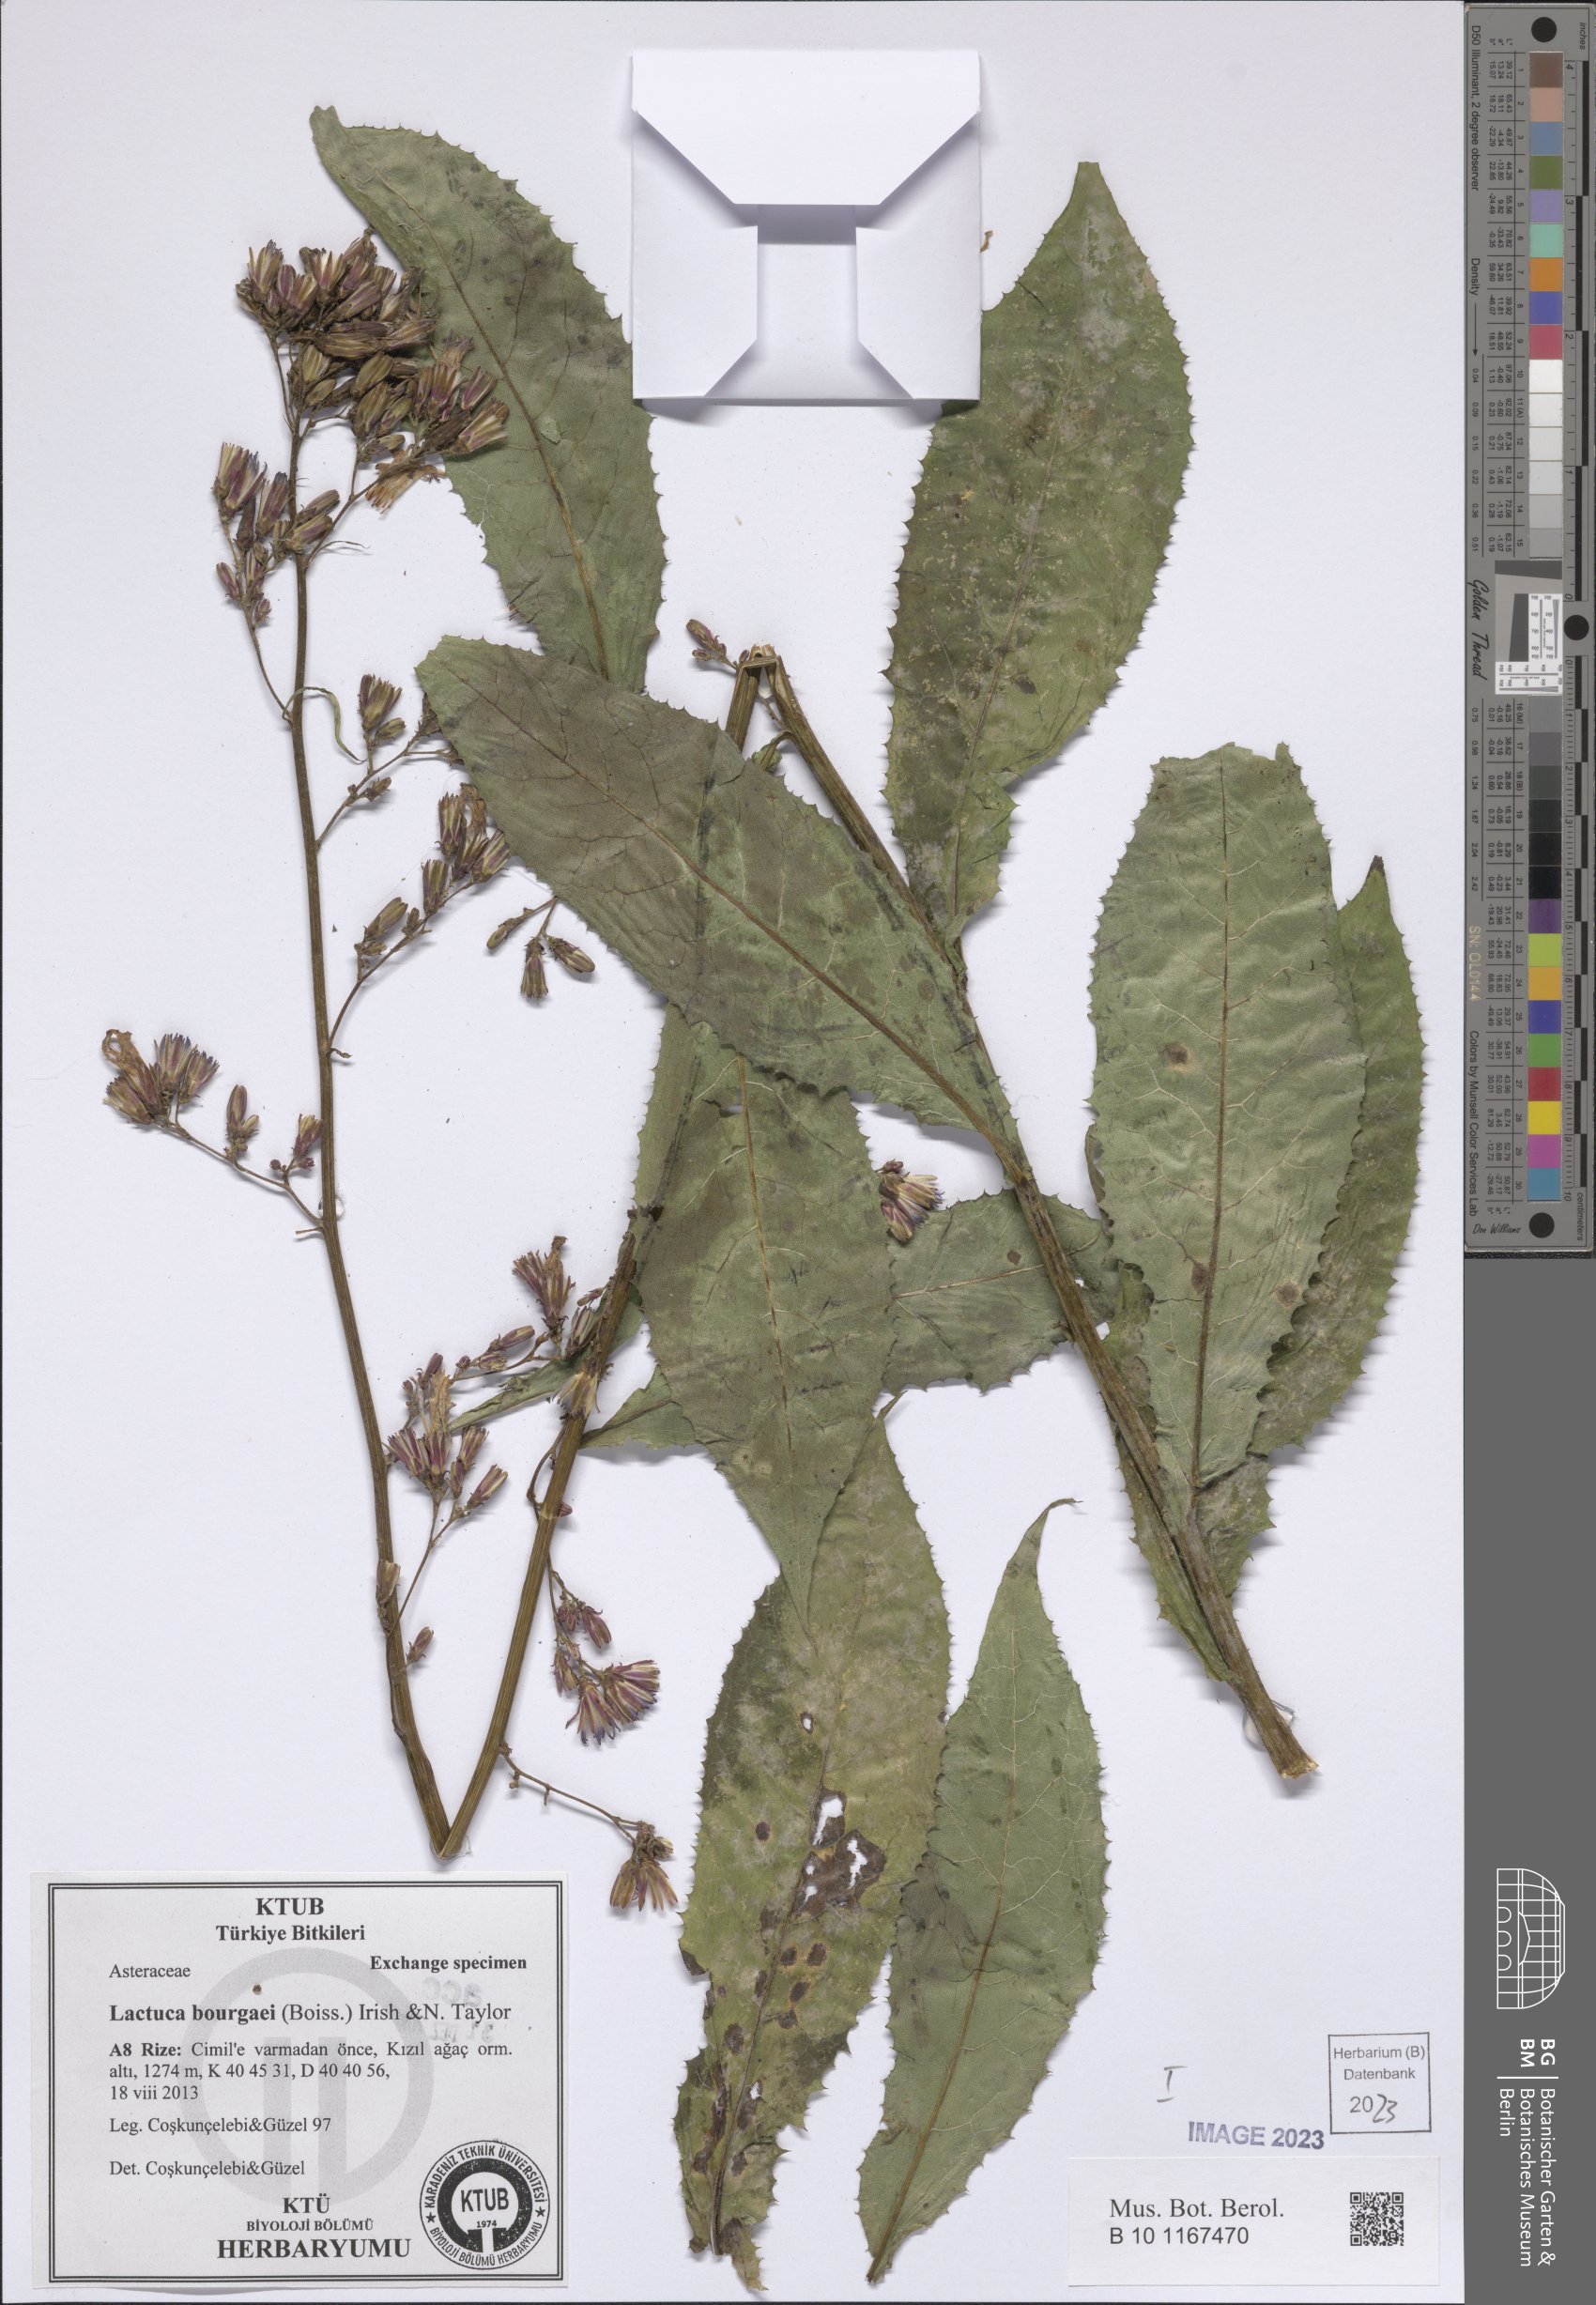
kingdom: Plantae
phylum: Tracheophyta
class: Magnoliopsida
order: Asterales
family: Asteraceae
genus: Lactuca
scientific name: Lactuca bourgaei
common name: Pontic blue-sow-thistle
